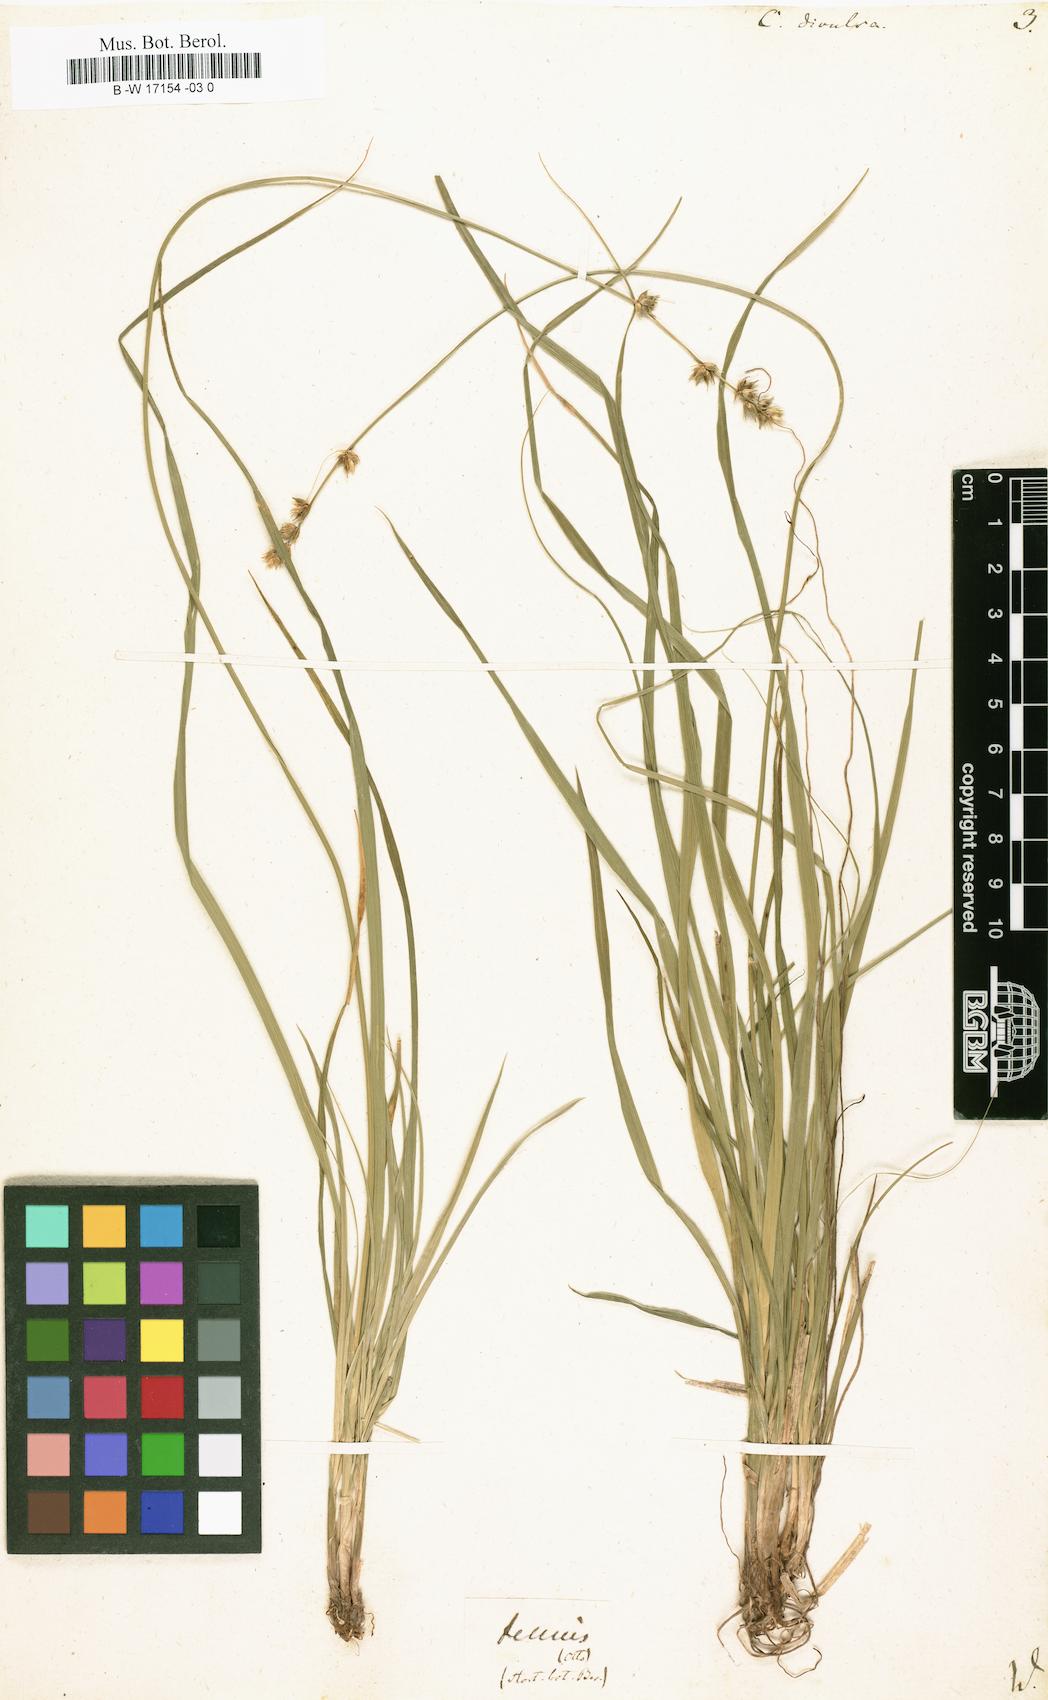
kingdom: Plantae
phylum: Tracheophyta
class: Liliopsida
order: Poales
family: Cyperaceae
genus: Carex
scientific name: Carex divulsa
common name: Grassland sedge
